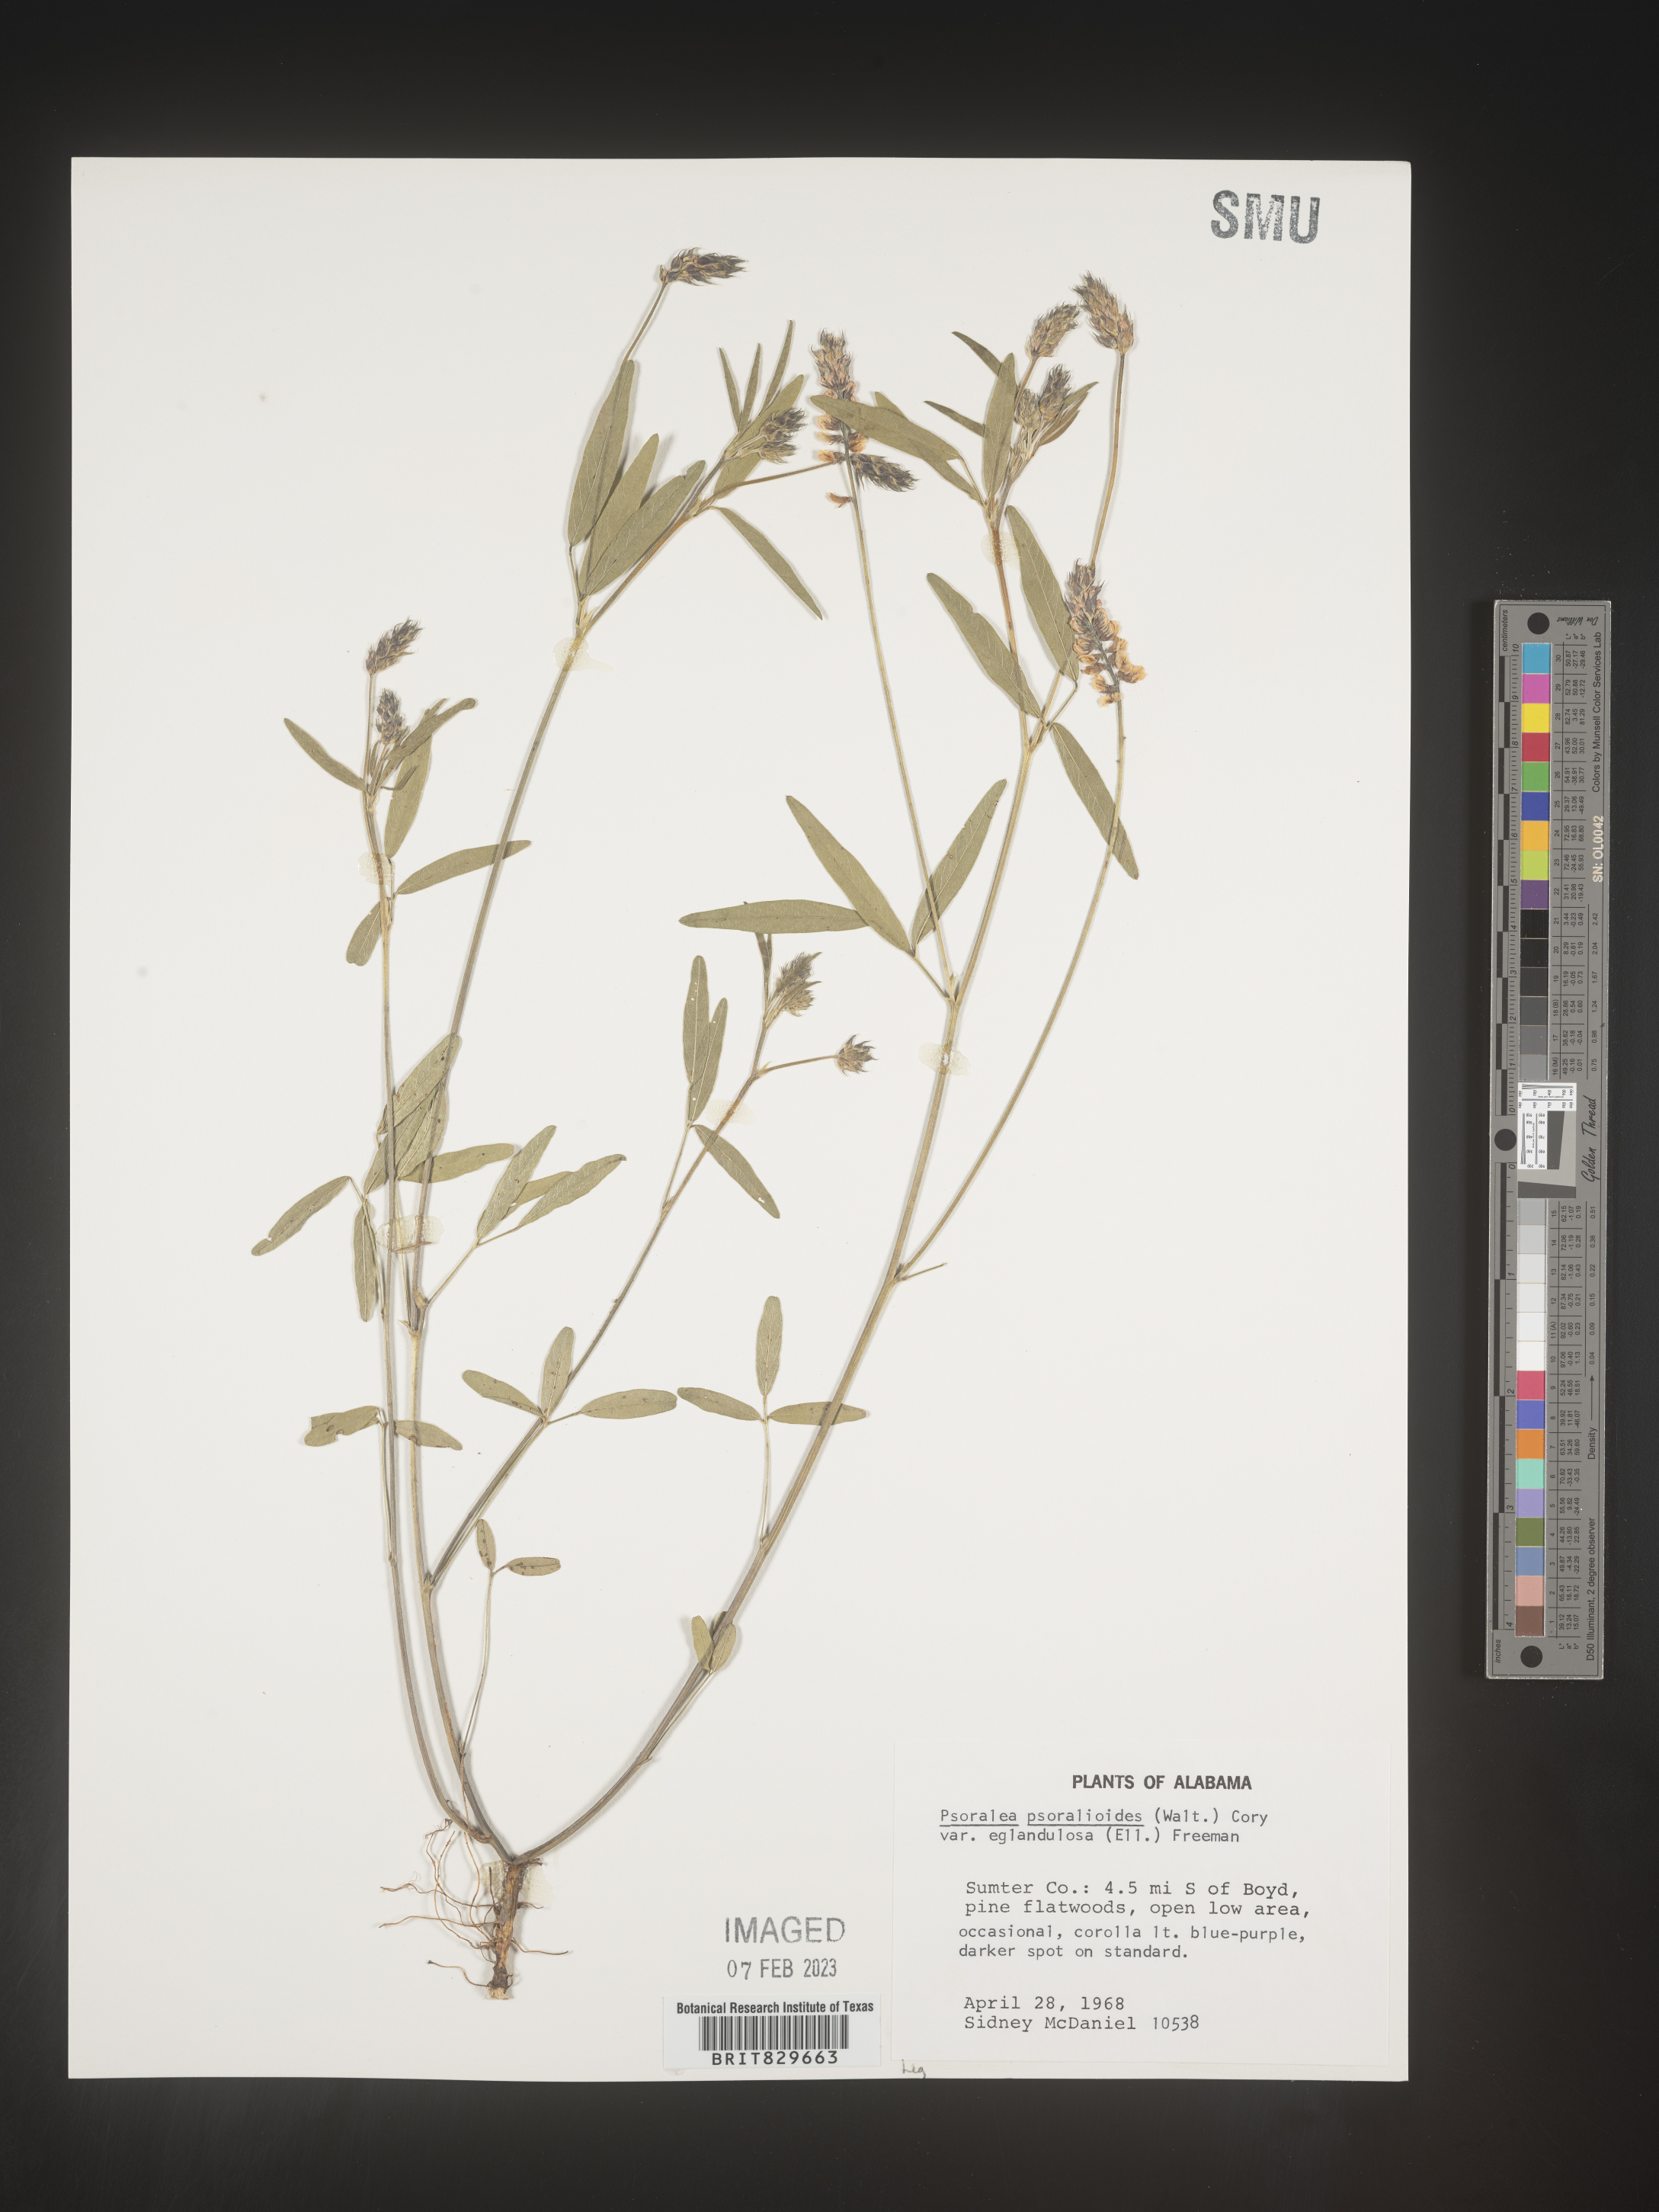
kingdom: Plantae
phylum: Tracheophyta
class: Magnoliopsida
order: Fabales
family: Fabaceae
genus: Orbexilum
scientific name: Orbexilum psoralioides
